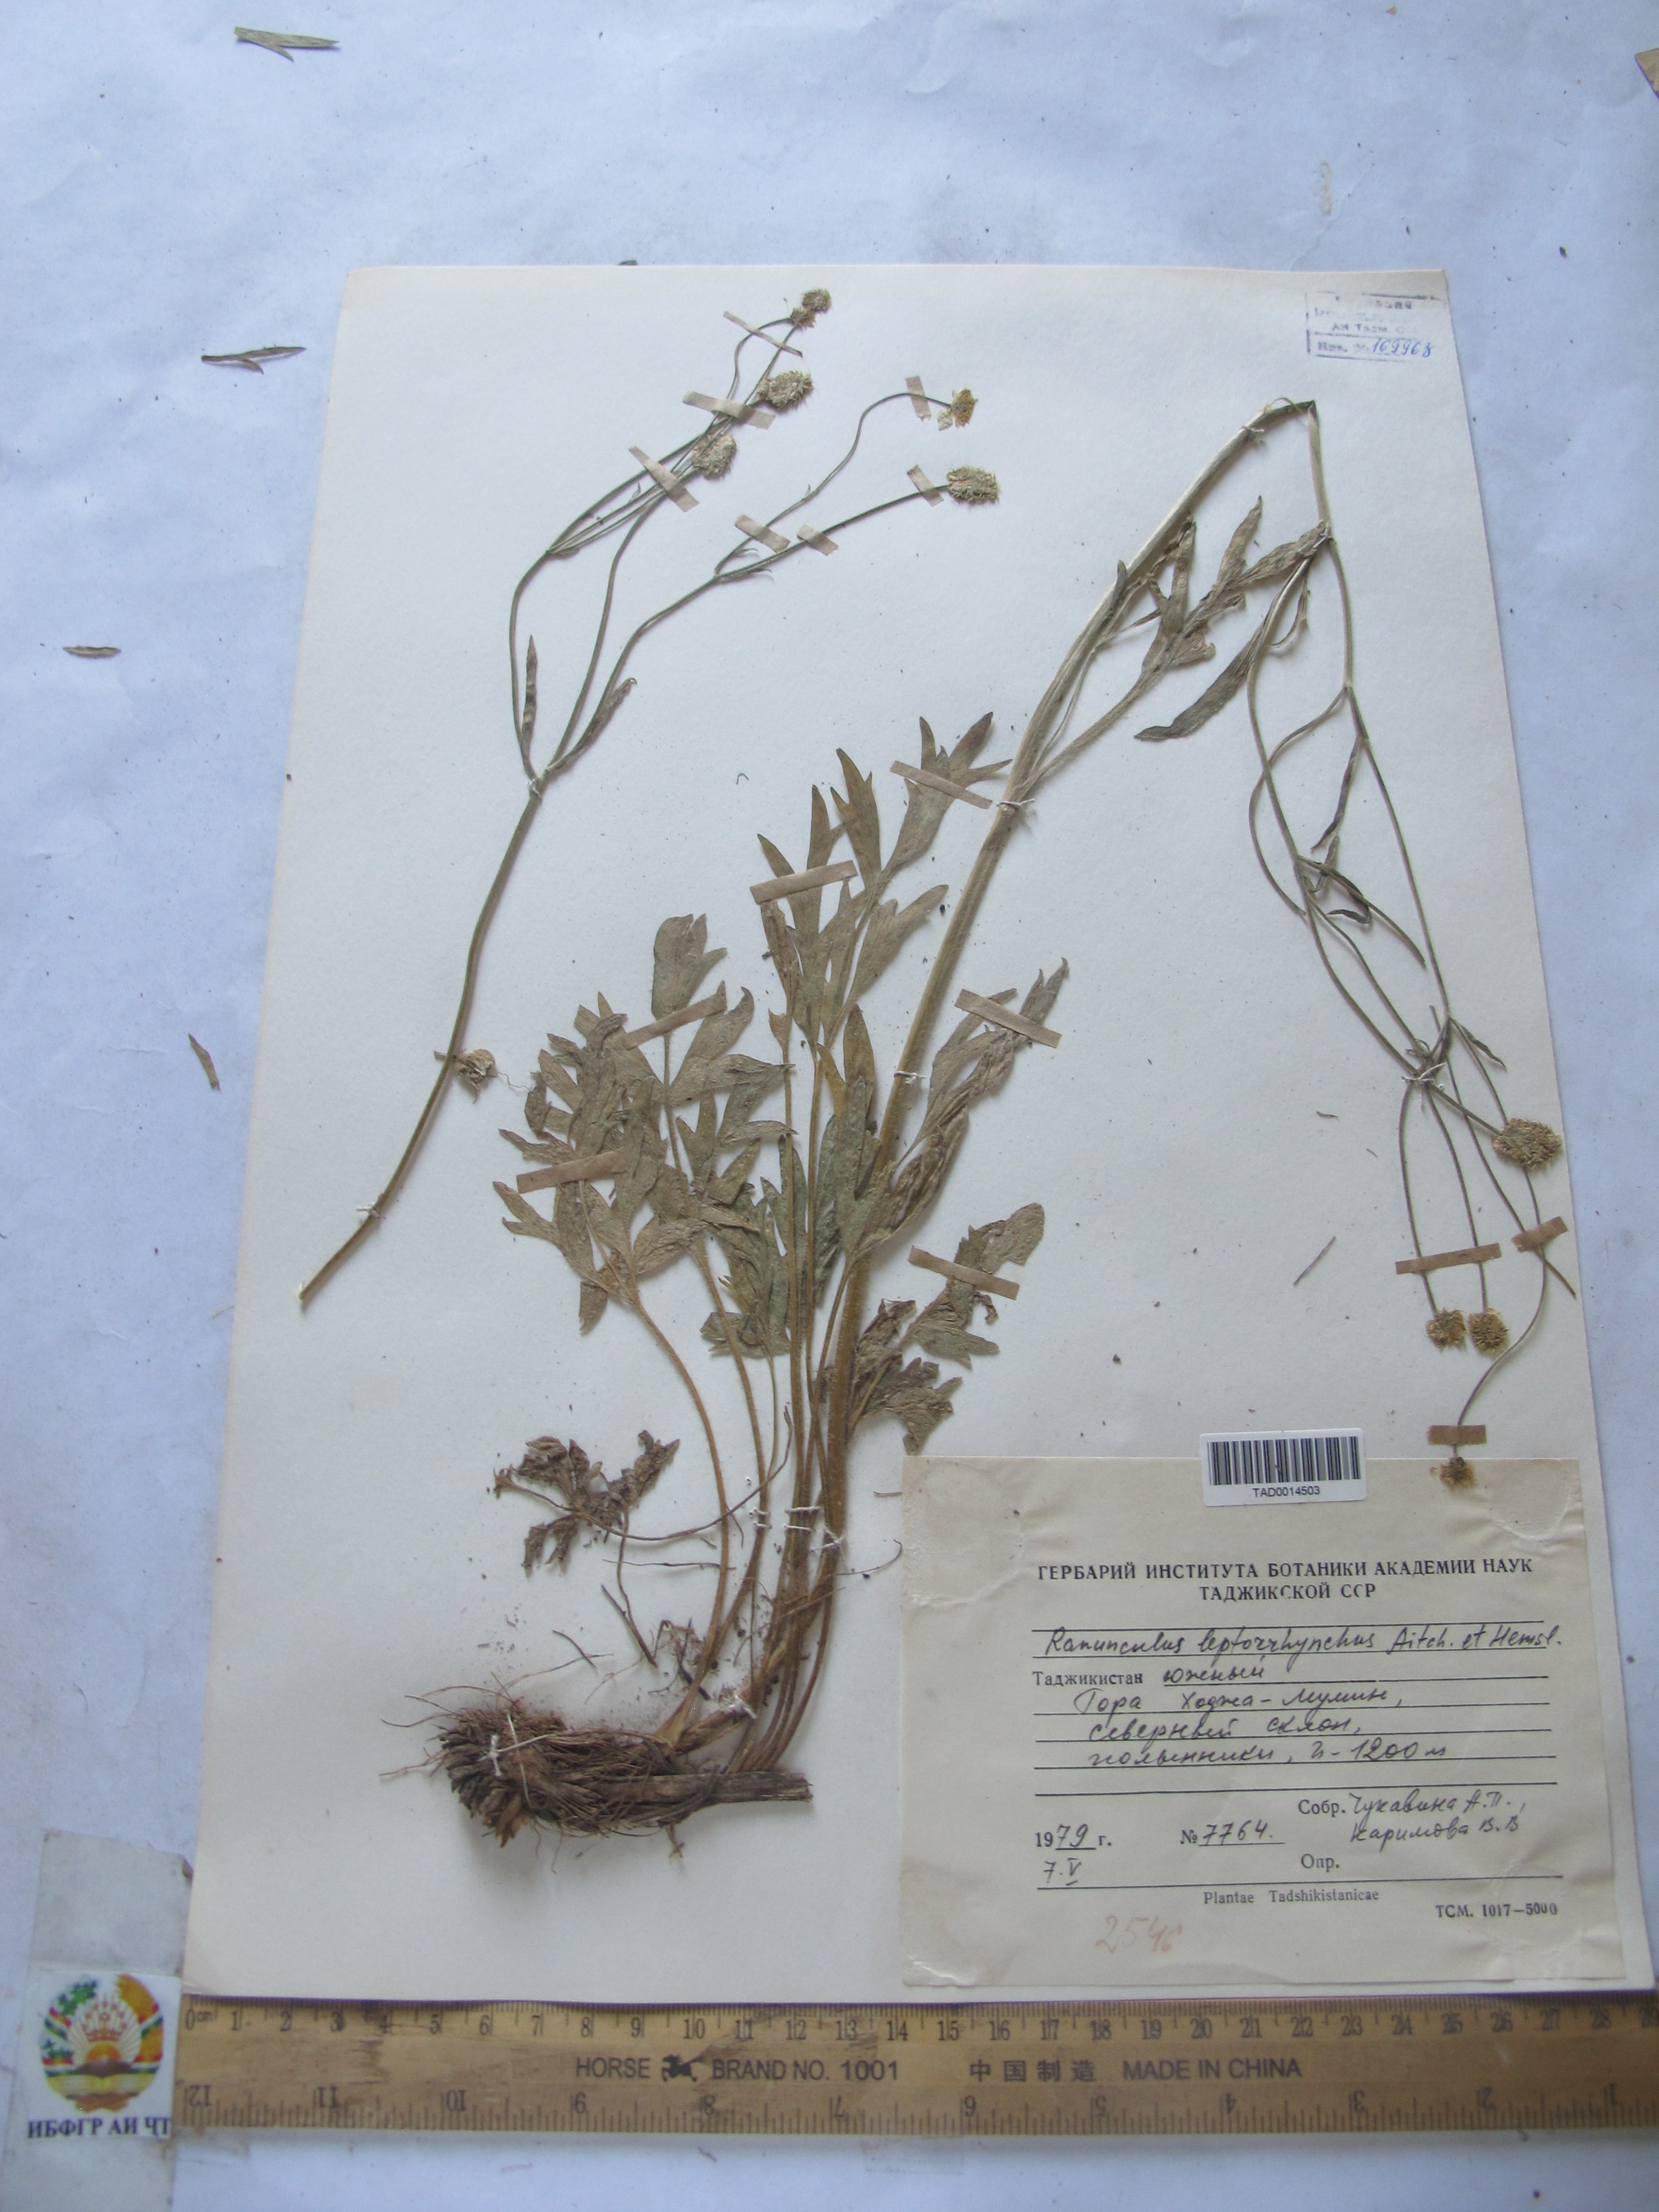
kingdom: Plantae
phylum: Tracheophyta
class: Magnoliopsida
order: Ranunculales
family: Ranunculaceae
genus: Ranunculus
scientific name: Ranunculus leptorrhynchus
